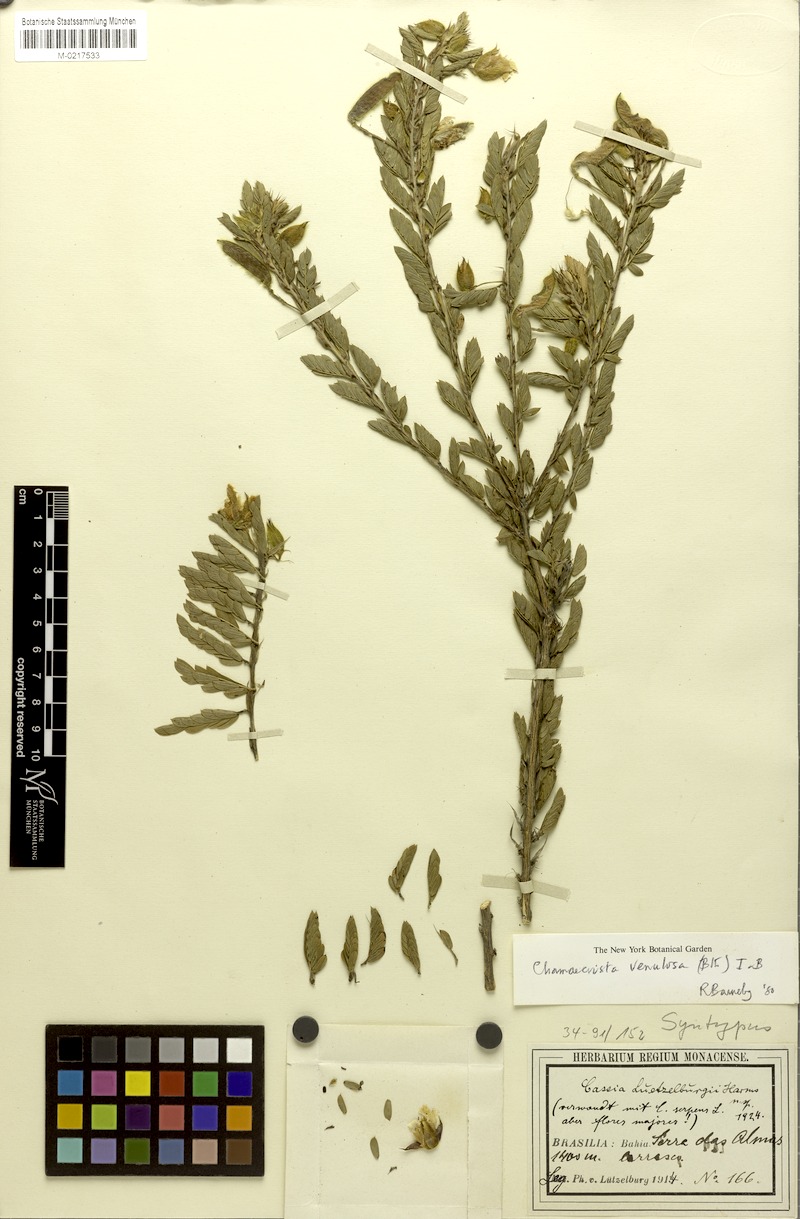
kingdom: Plantae
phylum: Tracheophyta
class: Magnoliopsida
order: Fabales
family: Fabaceae
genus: Chamaecrista
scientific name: Chamaecrista venulosa
